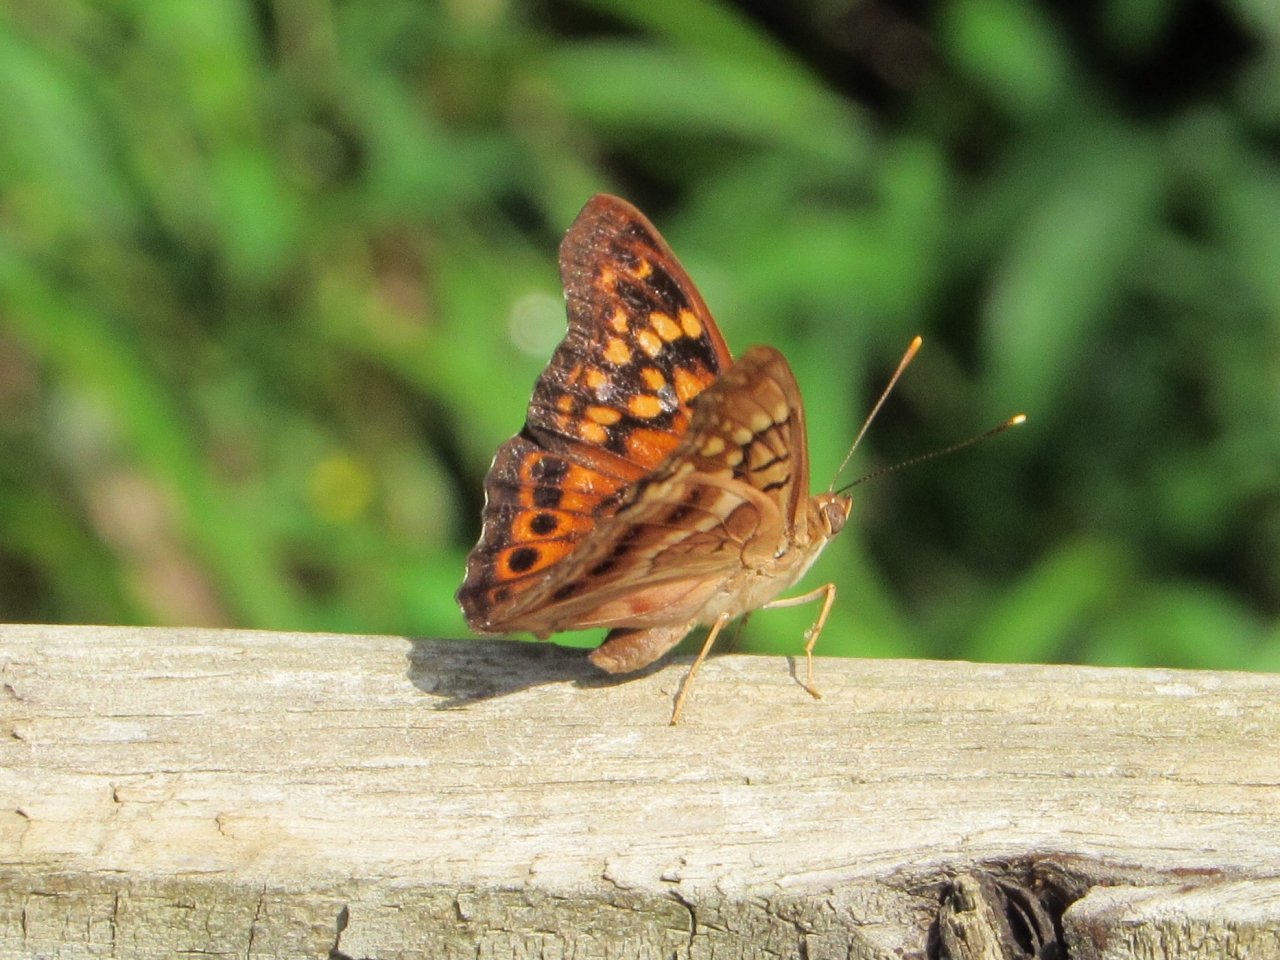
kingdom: Animalia
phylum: Arthropoda
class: Insecta
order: Lepidoptera
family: Nymphalidae
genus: Asterocampa
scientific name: Asterocampa clyton
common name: Tawny Emperor
